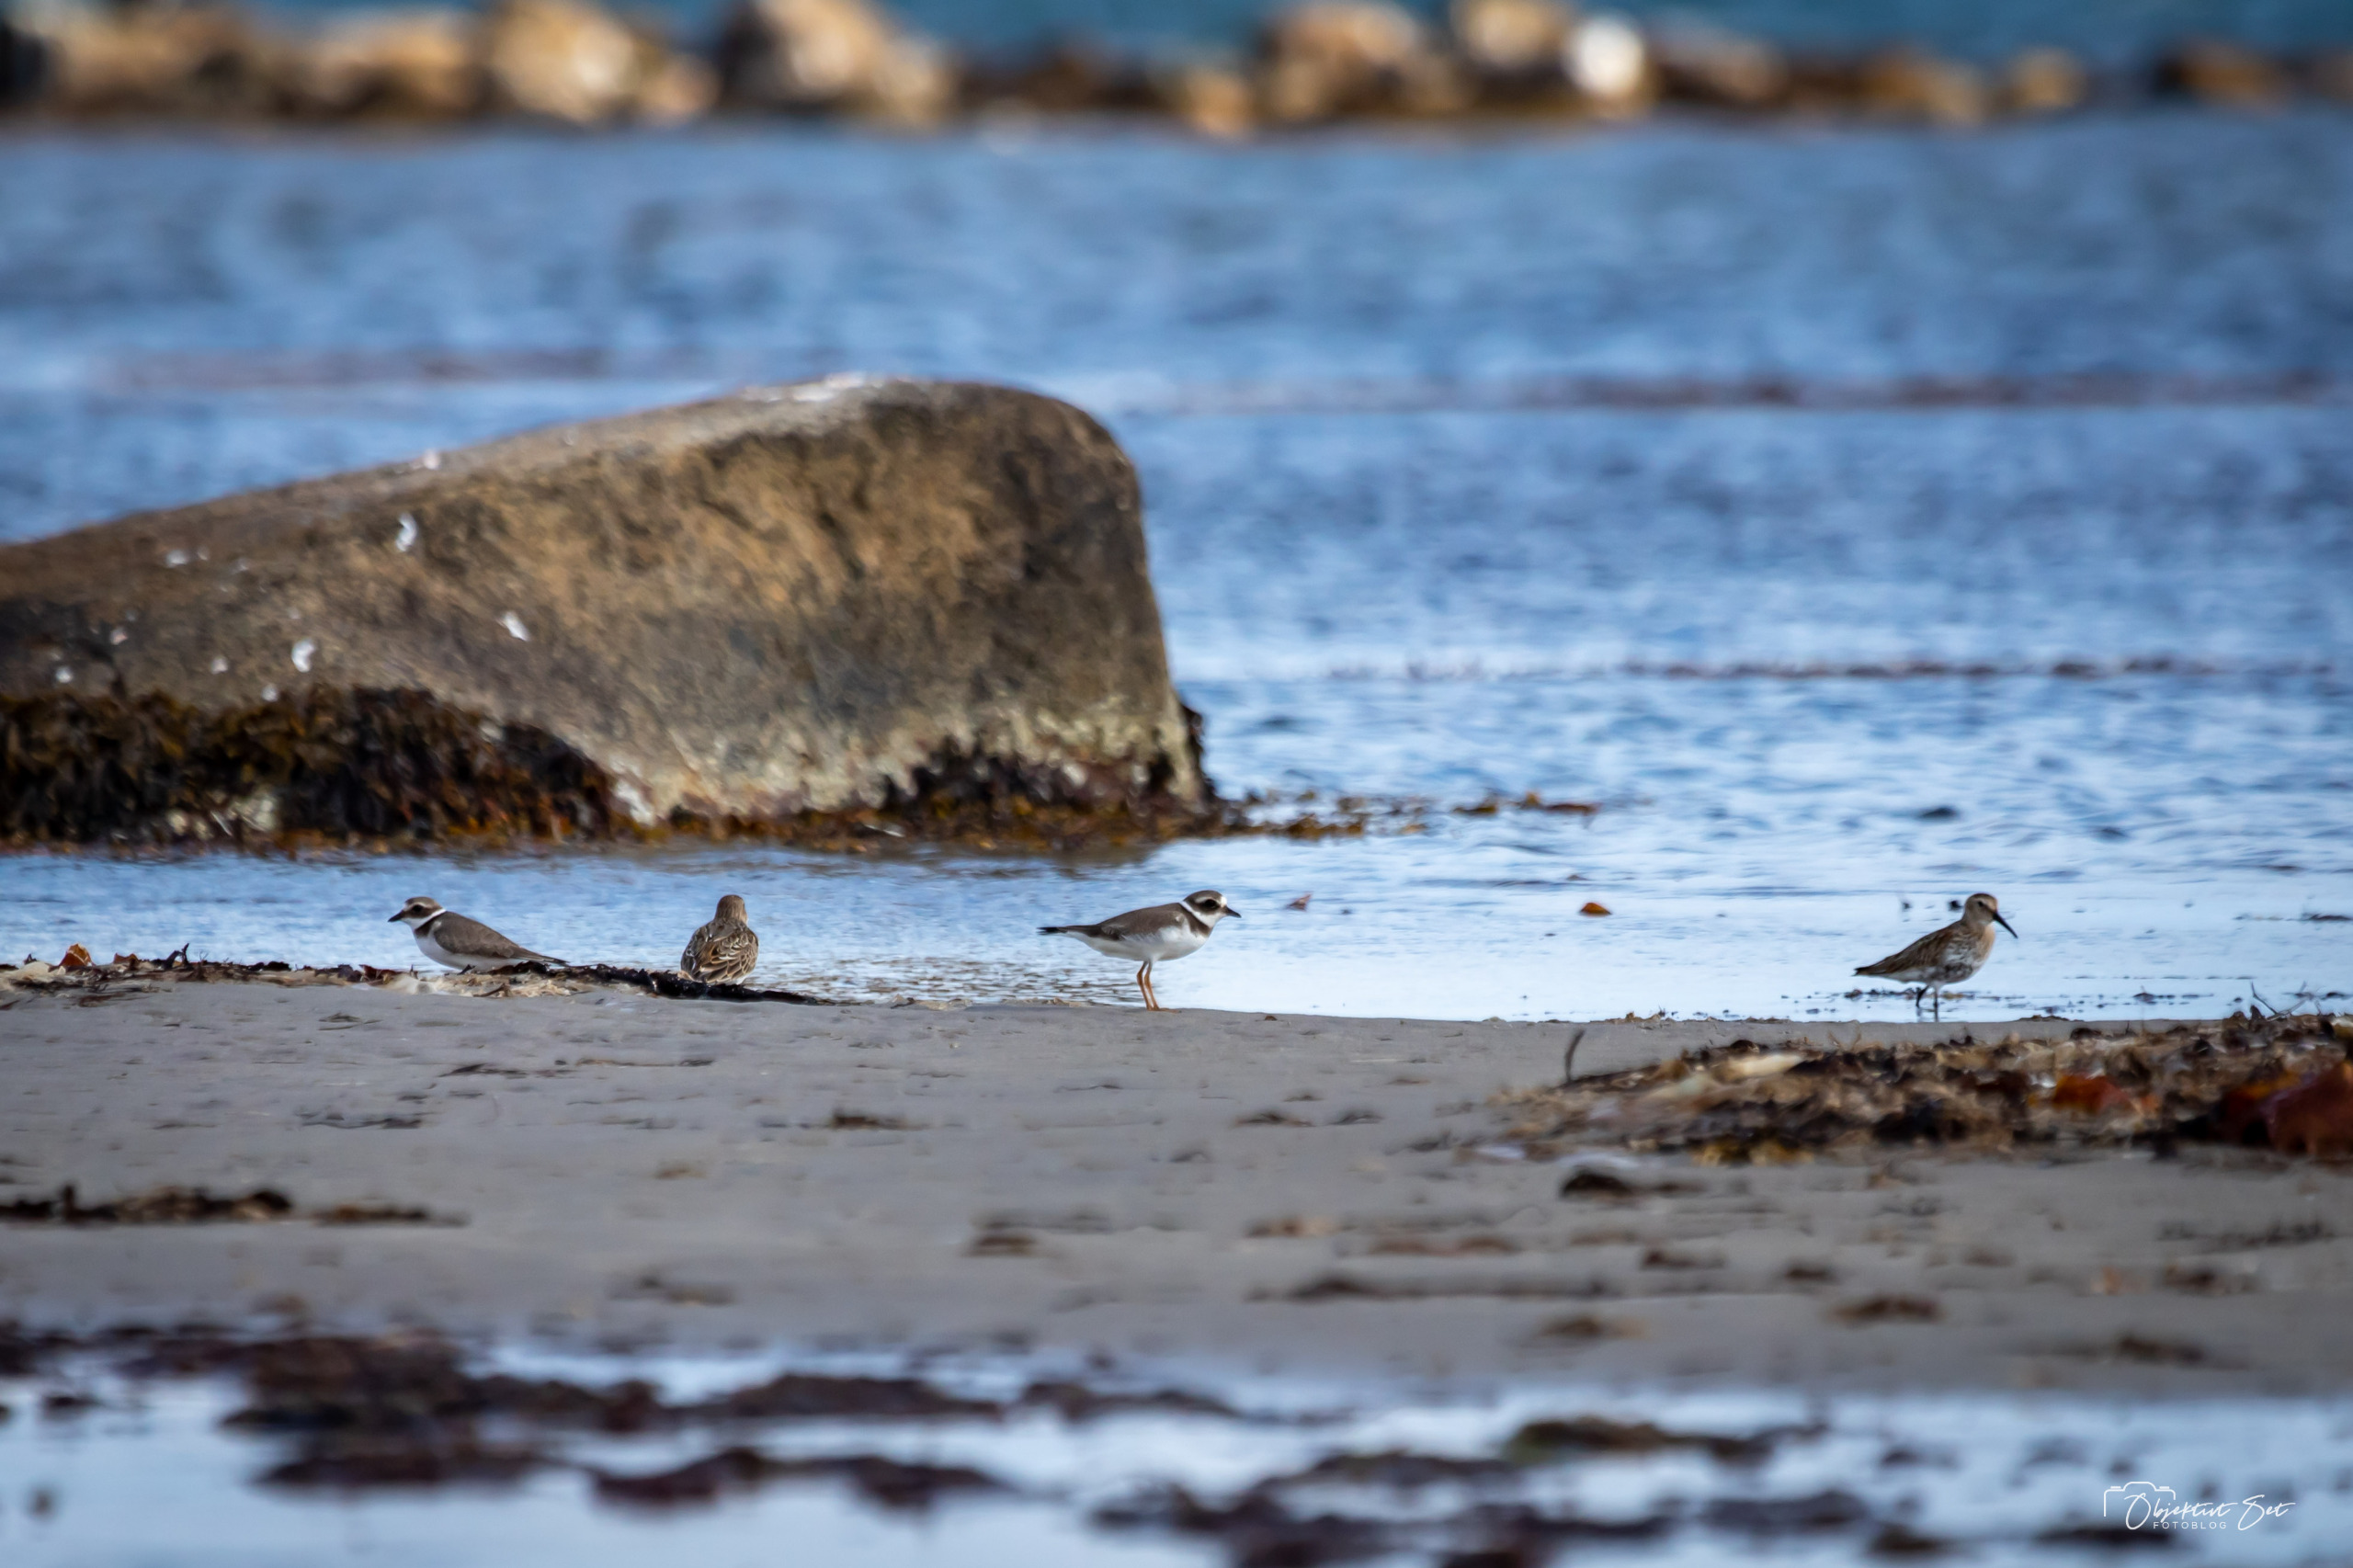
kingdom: Animalia
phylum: Chordata
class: Aves
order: Charadriiformes
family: Charadriidae
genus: Charadrius
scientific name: Charadrius hiaticula
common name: Stor præstekrave
